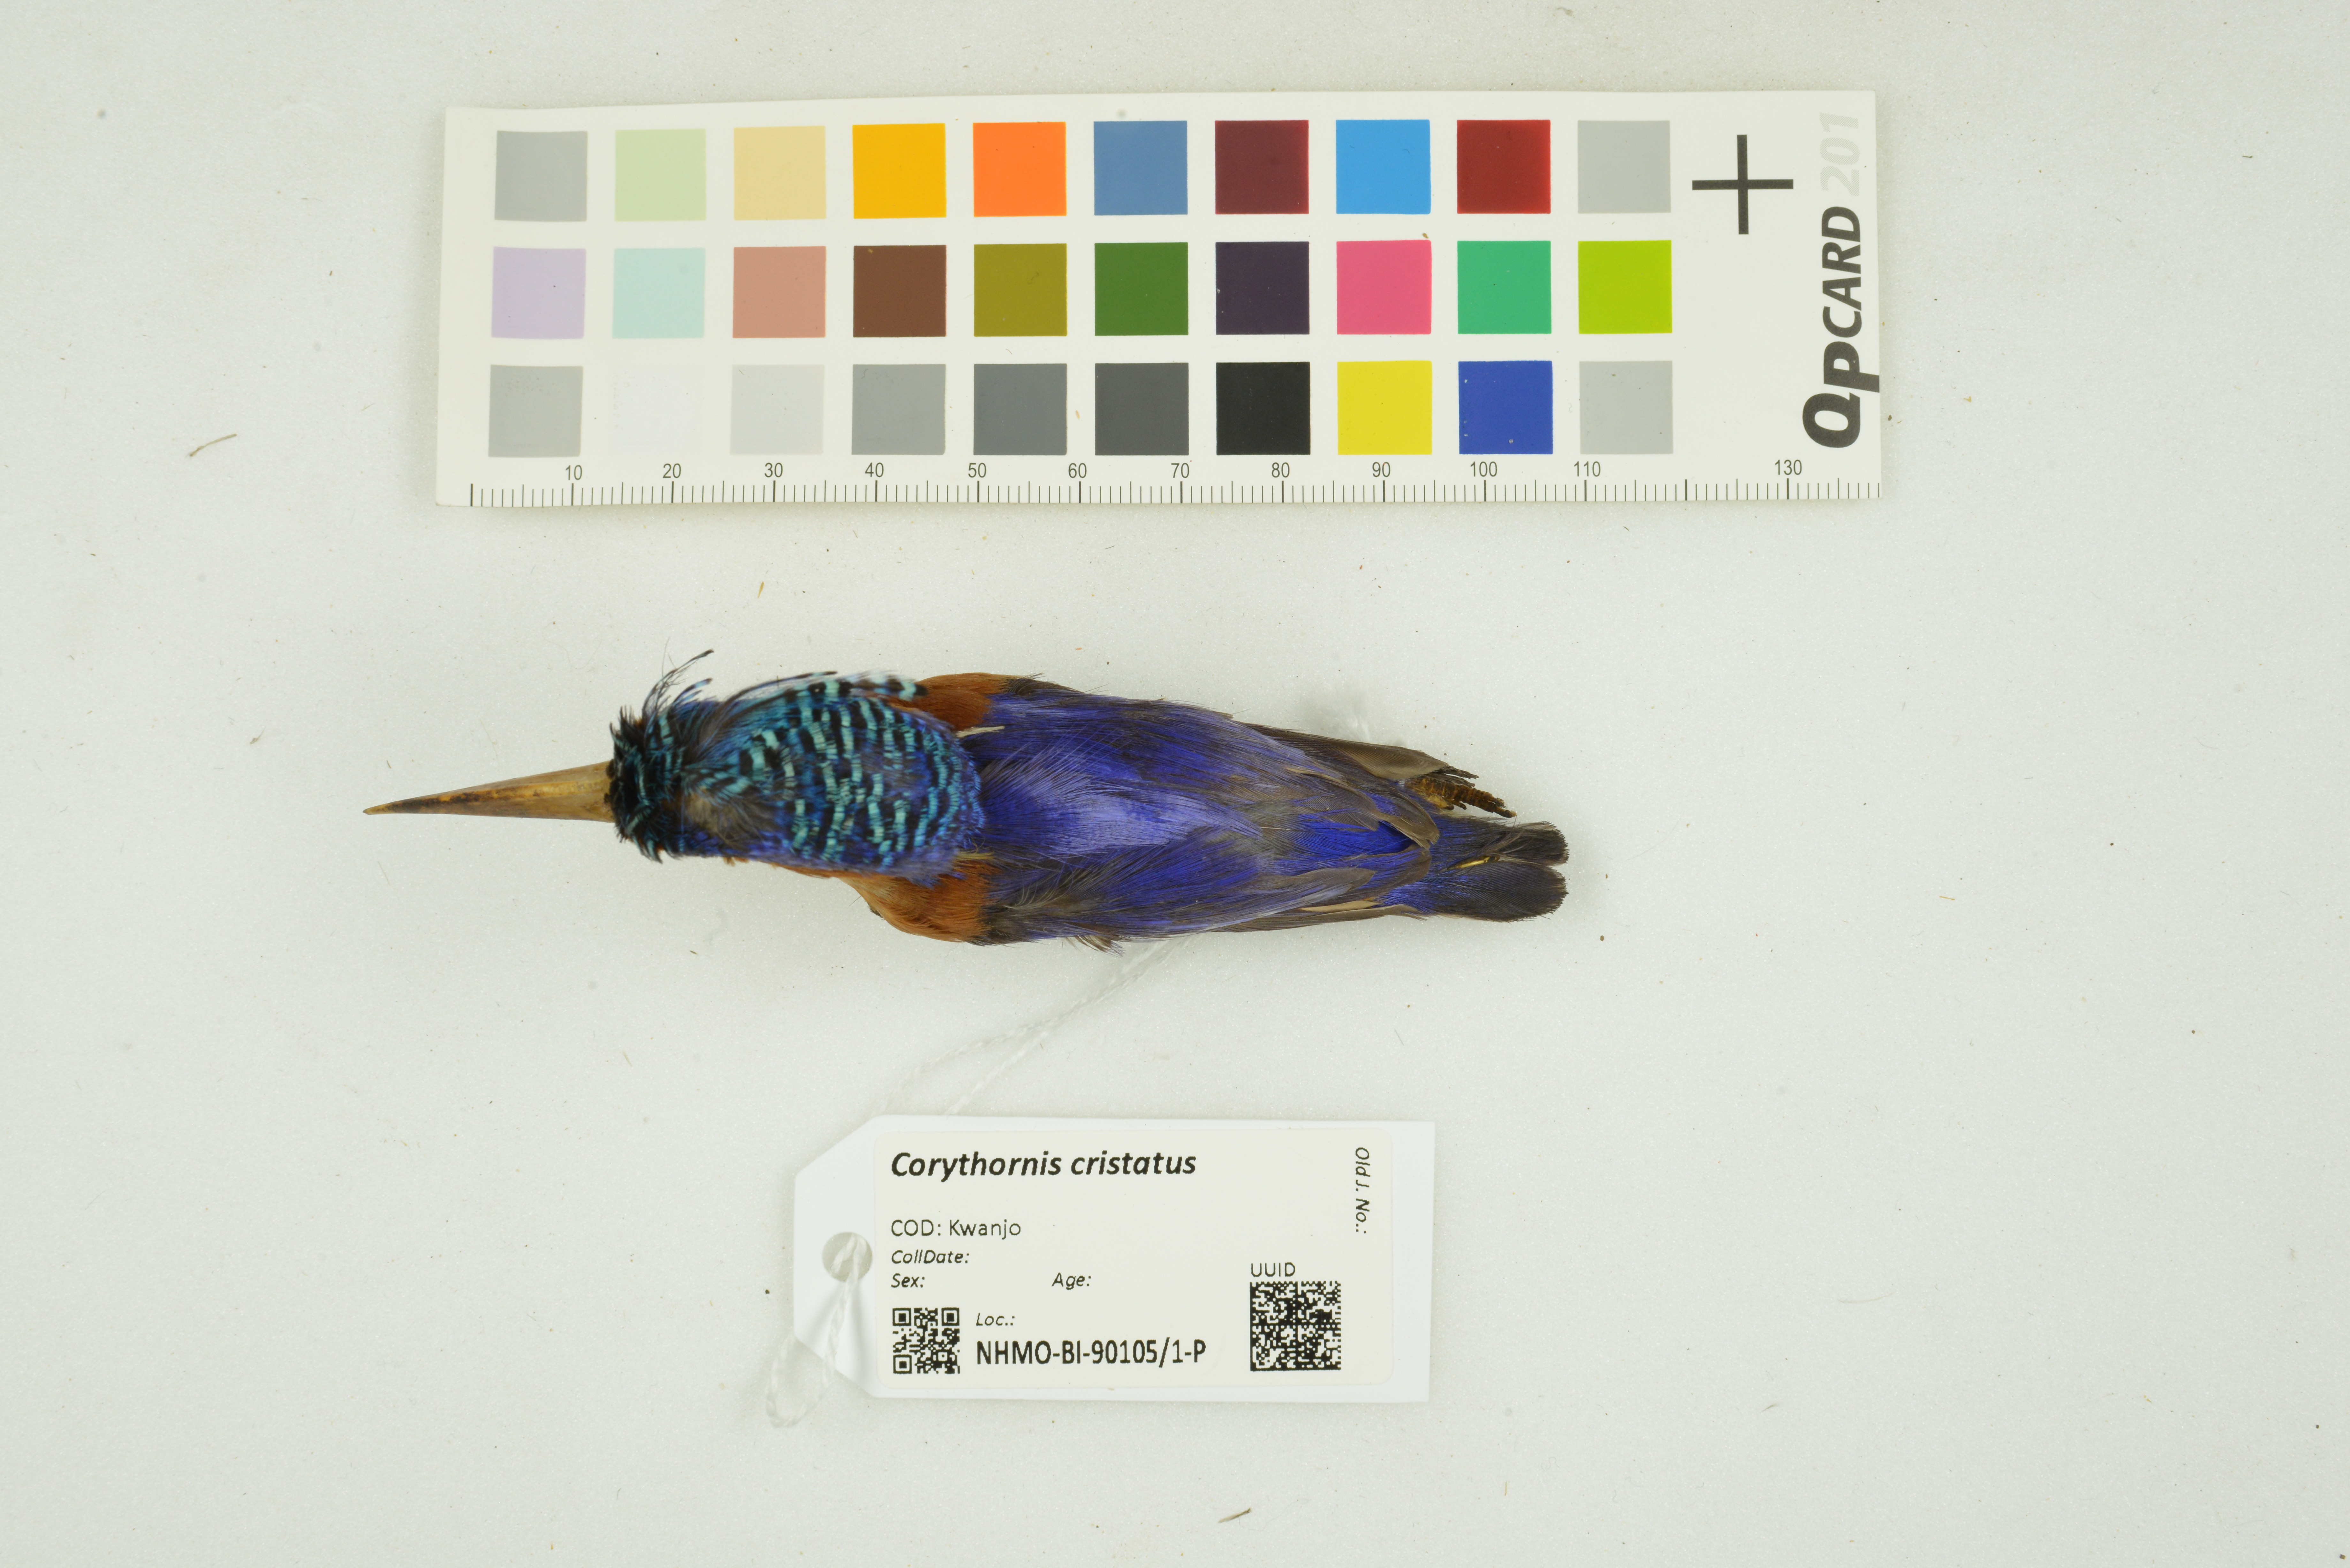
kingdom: Animalia
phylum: Chordata
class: Aves
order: Coraciiformes
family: Alcedinidae
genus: Corythornis
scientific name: Corythornis cristatus
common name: Malachite kingfisher
